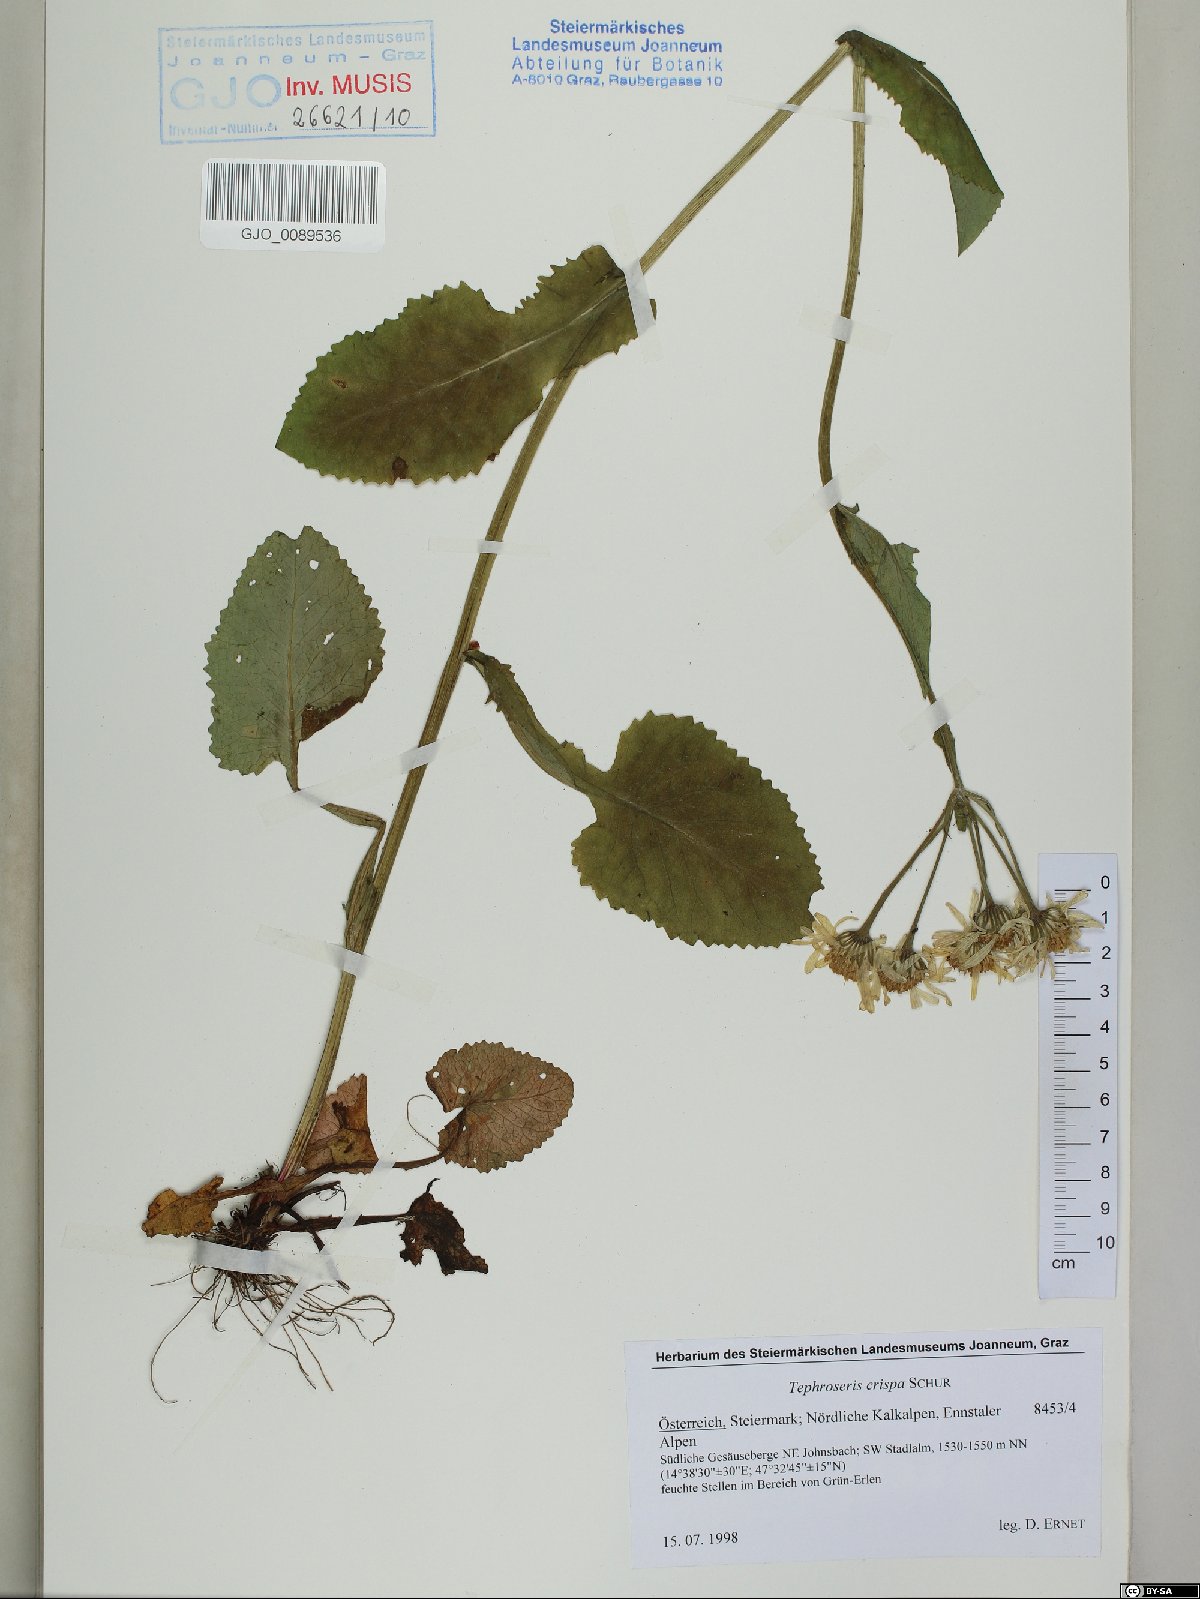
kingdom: Plantae
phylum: Tracheophyta
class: Magnoliopsida
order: Asterales
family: Asteraceae
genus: Tephroseris
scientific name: Tephroseris crispa
